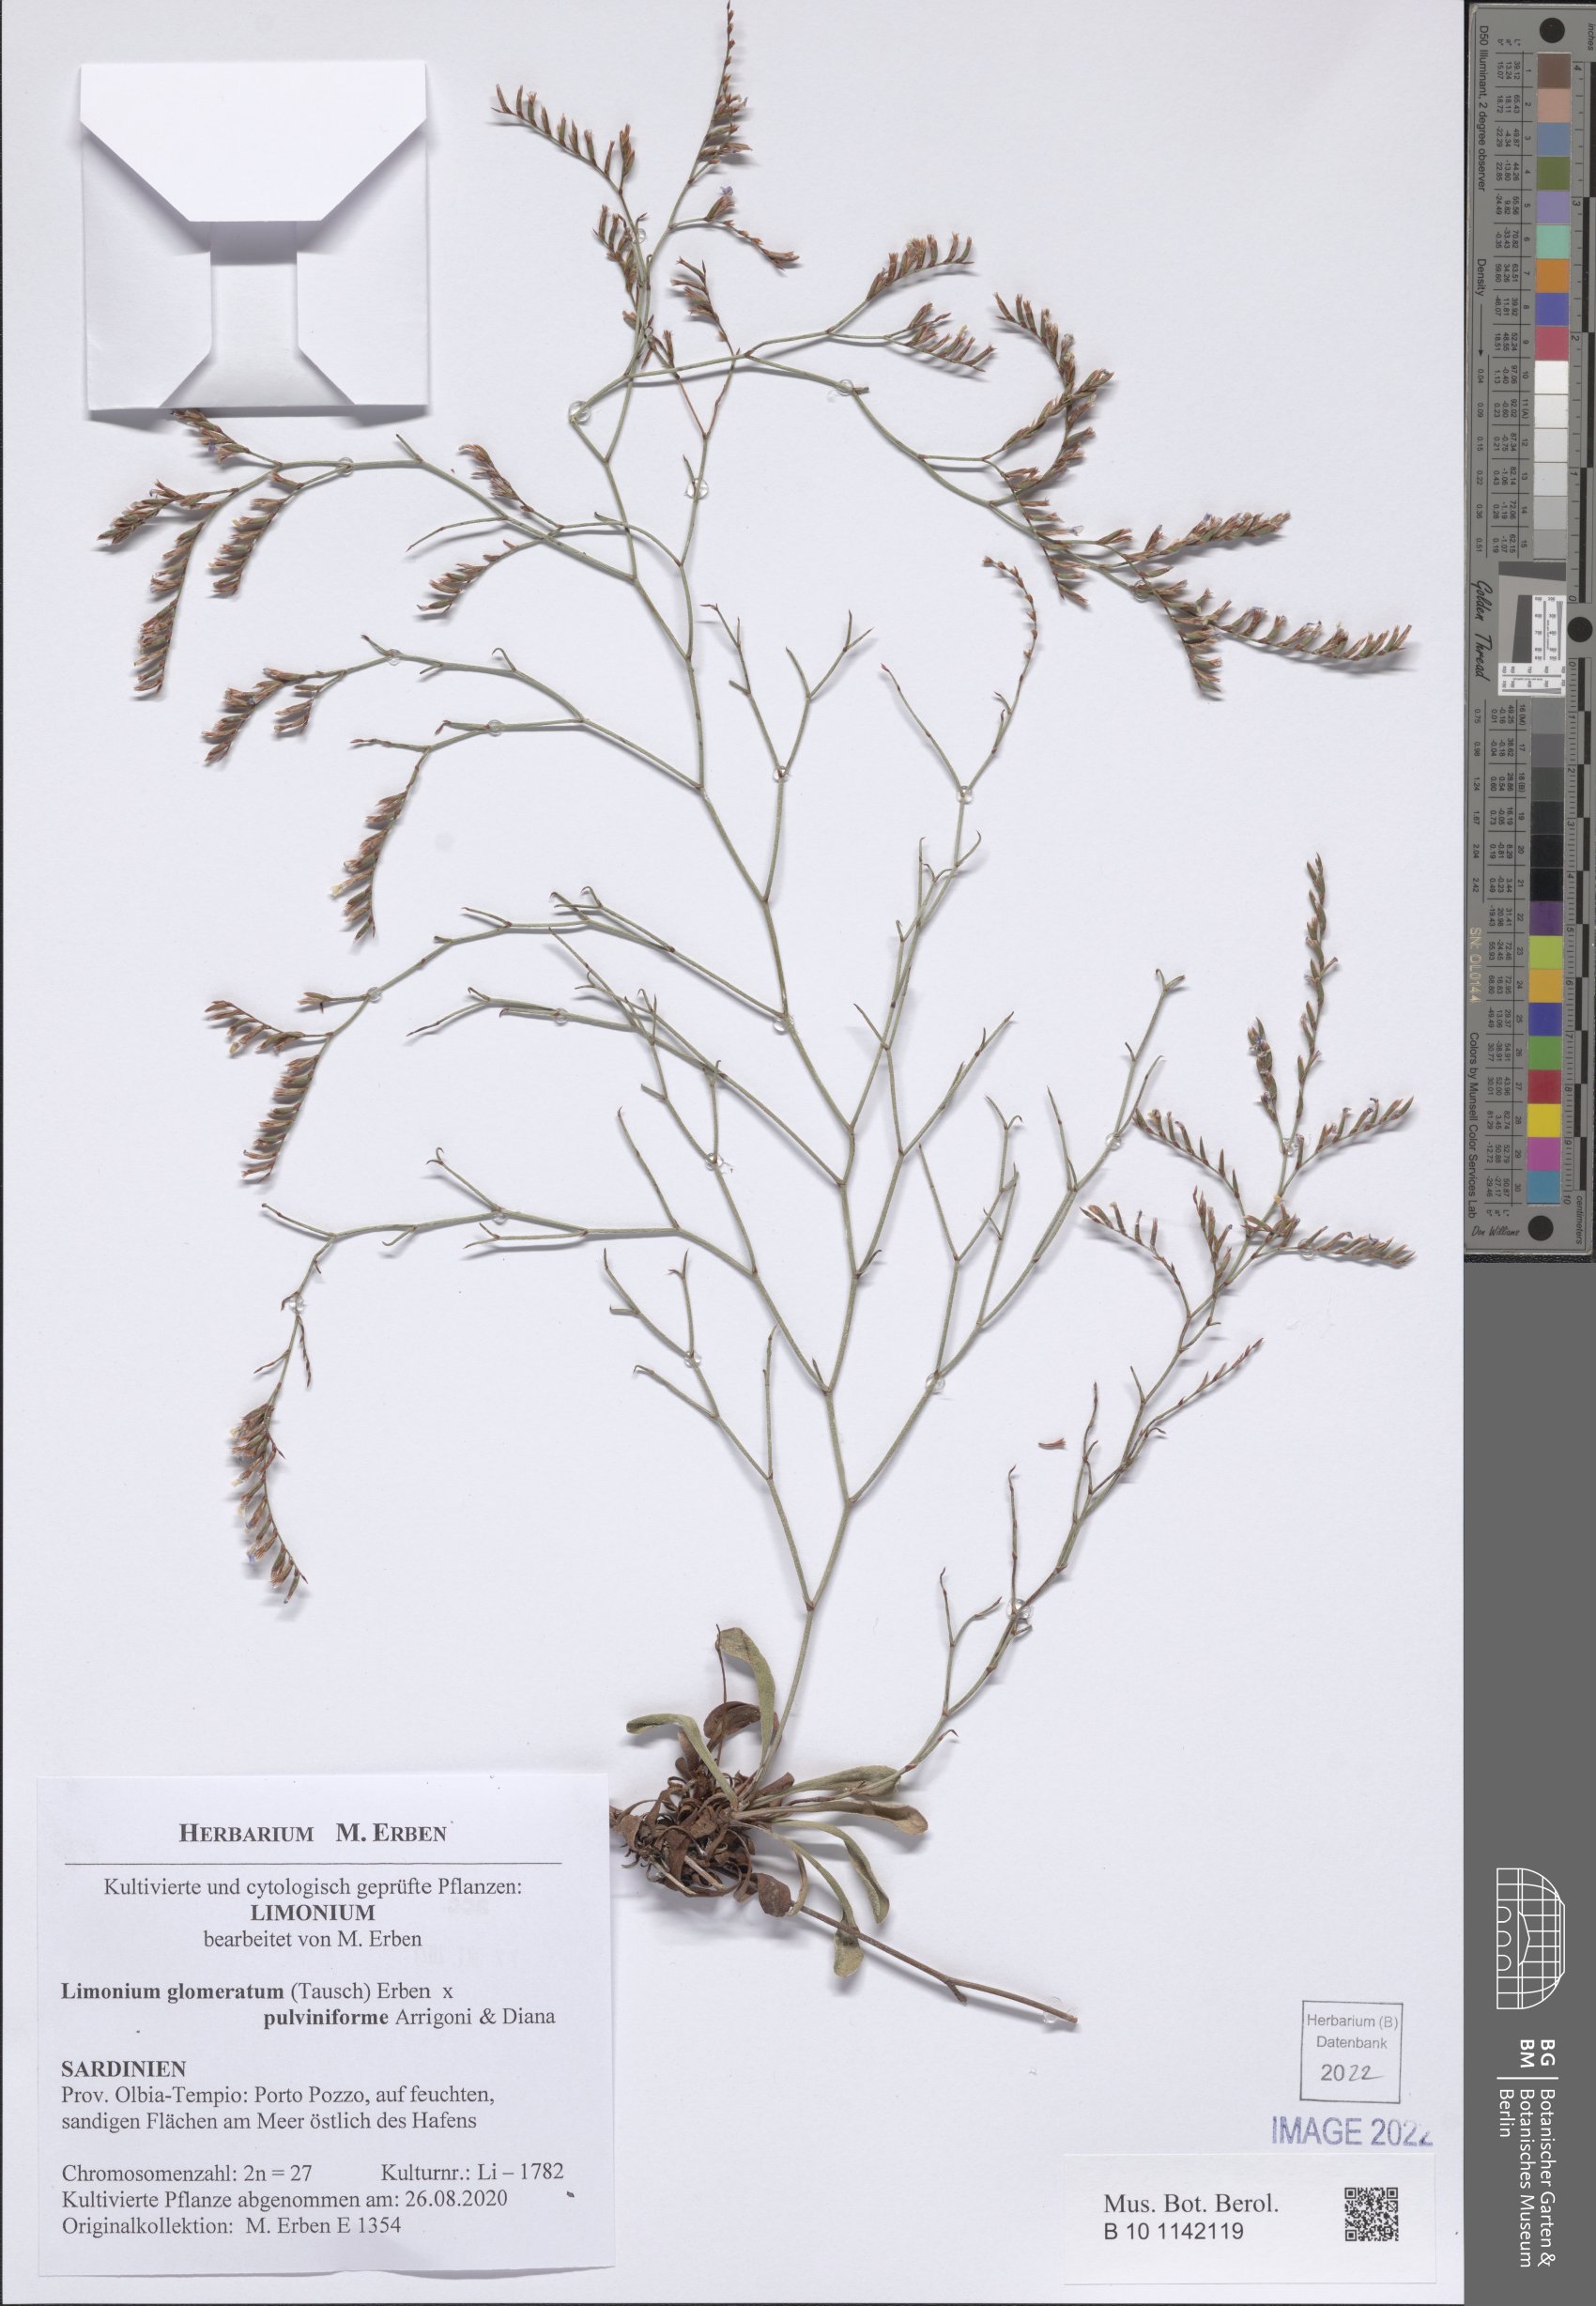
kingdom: Plantae
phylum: Tracheophyta
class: Magnoliopsida
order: Caryophyllales
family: Plumbaginaceae
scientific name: Plumbaginaceae
